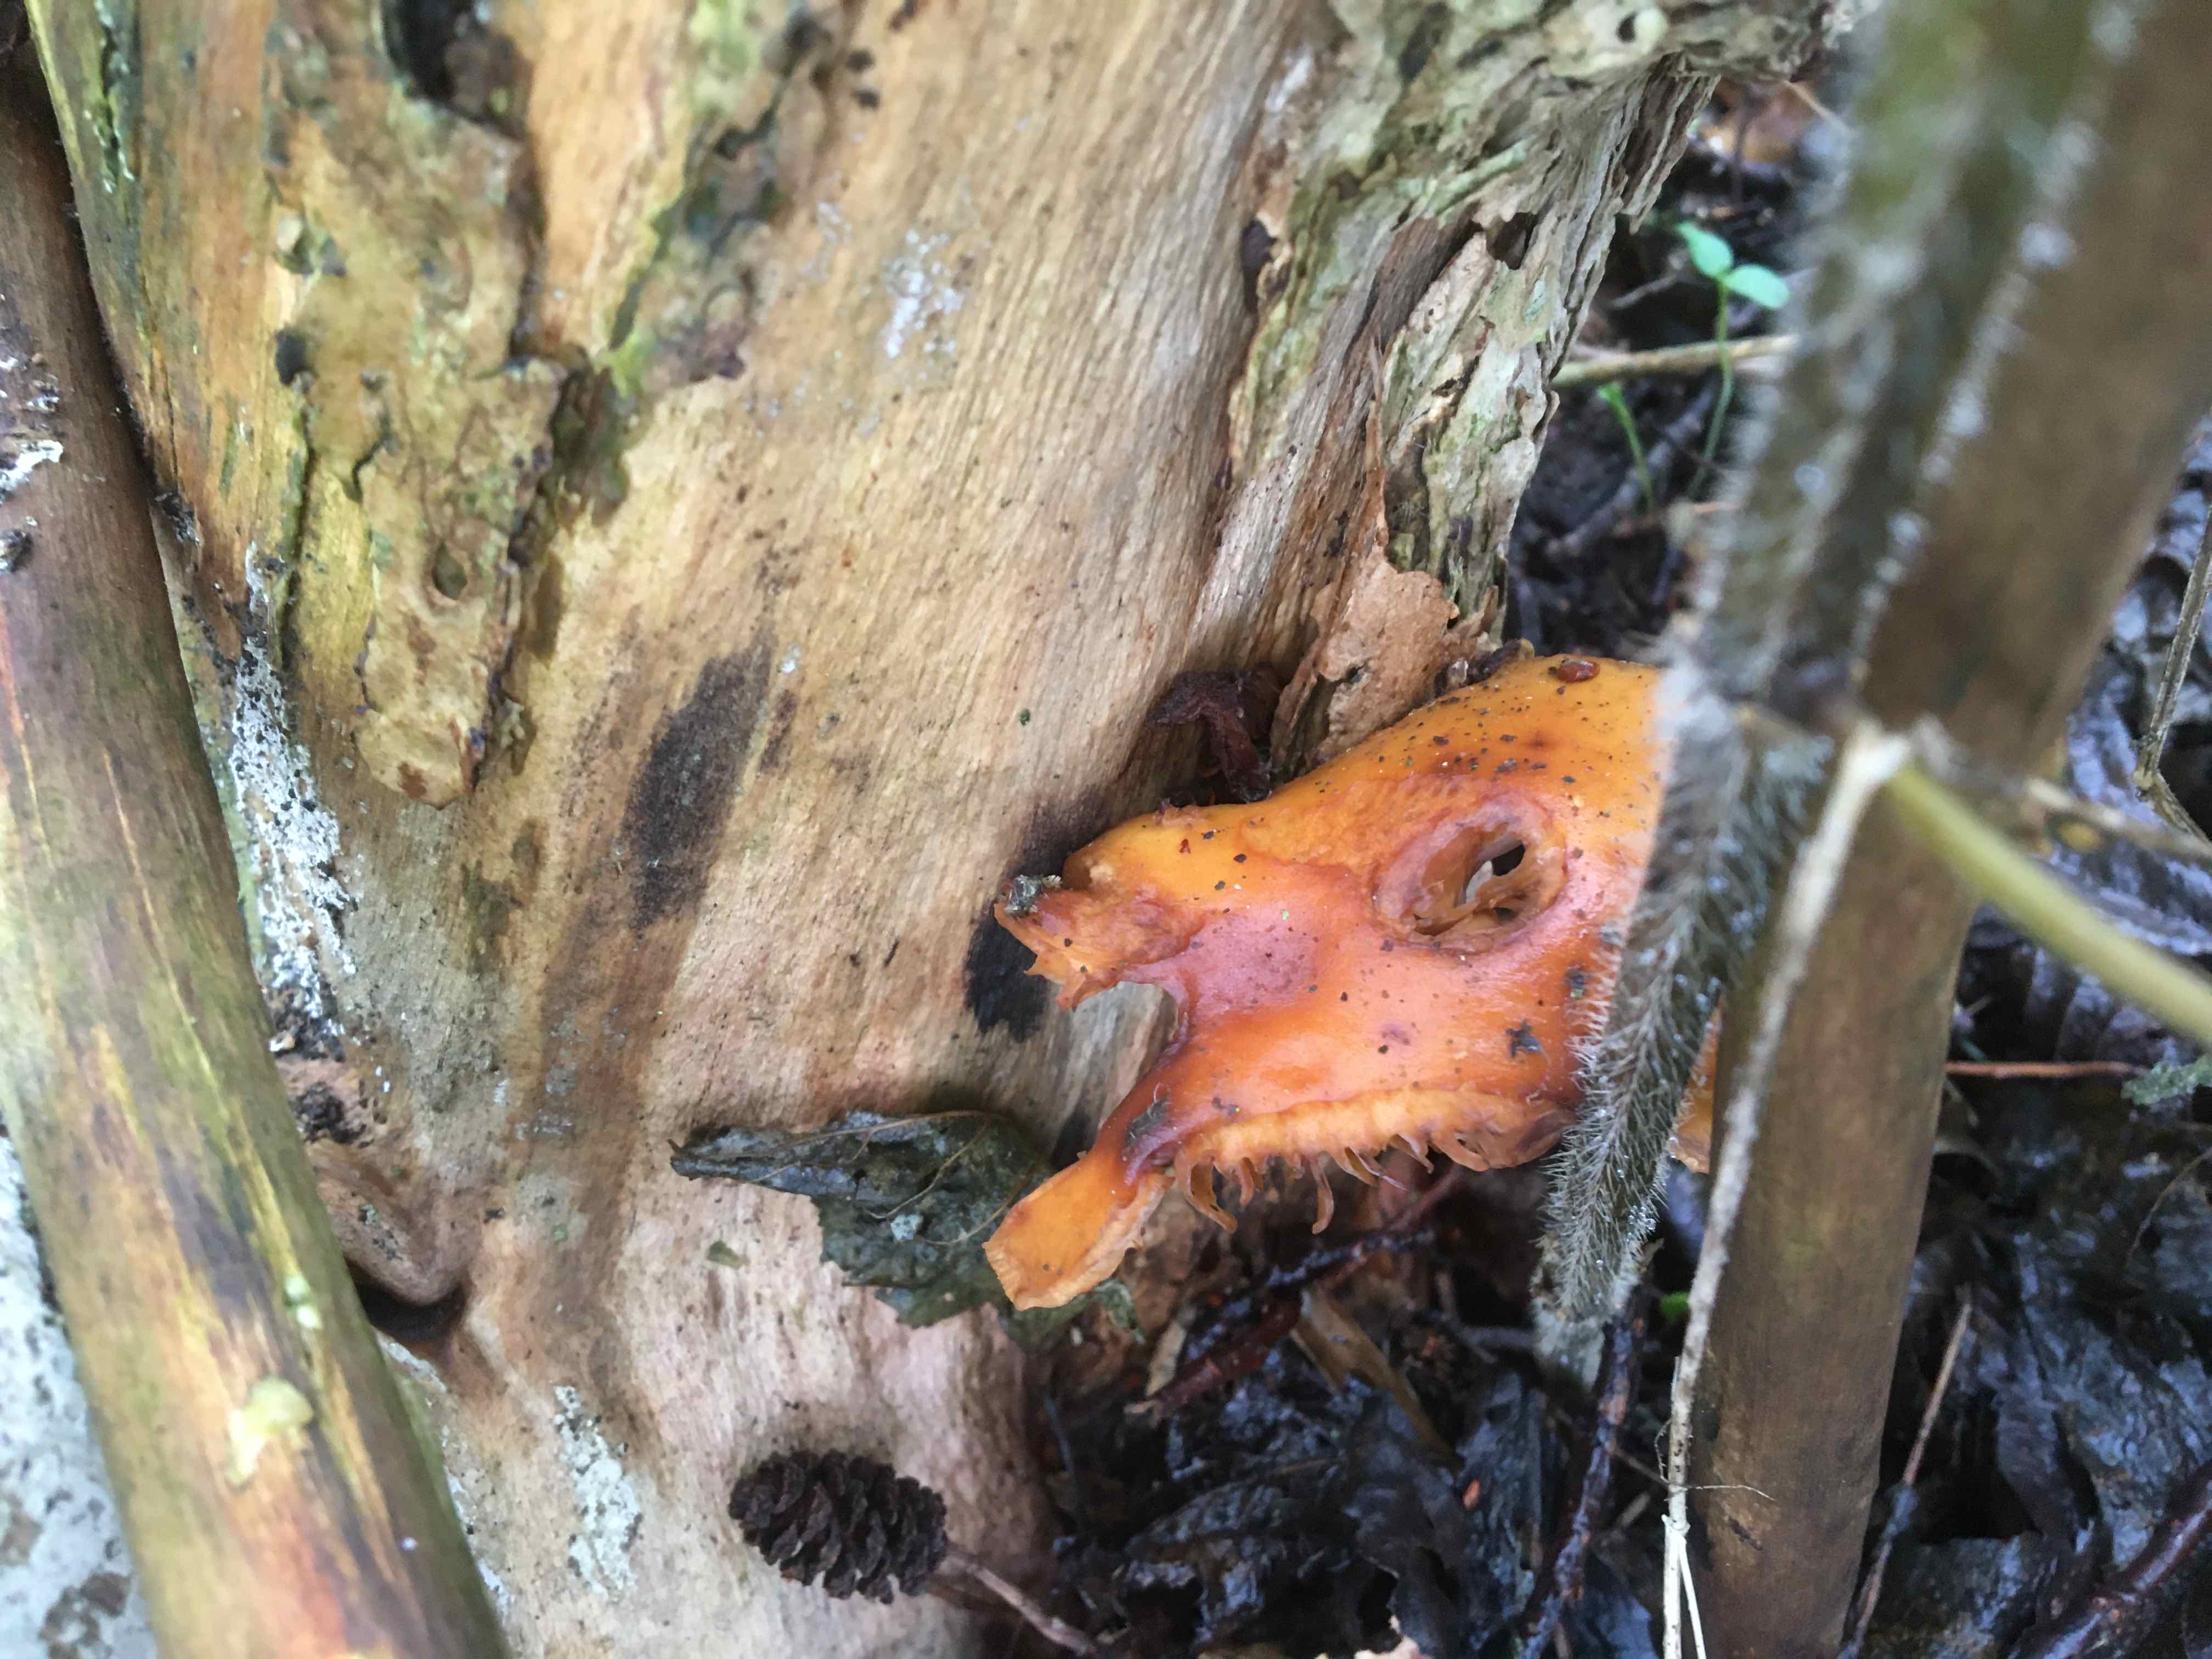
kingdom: Fungi
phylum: Basidiomycota
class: Agaricomycetes
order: Agaricales
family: Physalacriaceae
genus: Flammulina
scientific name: Flammulina velutipes
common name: gul fløjlsfod
